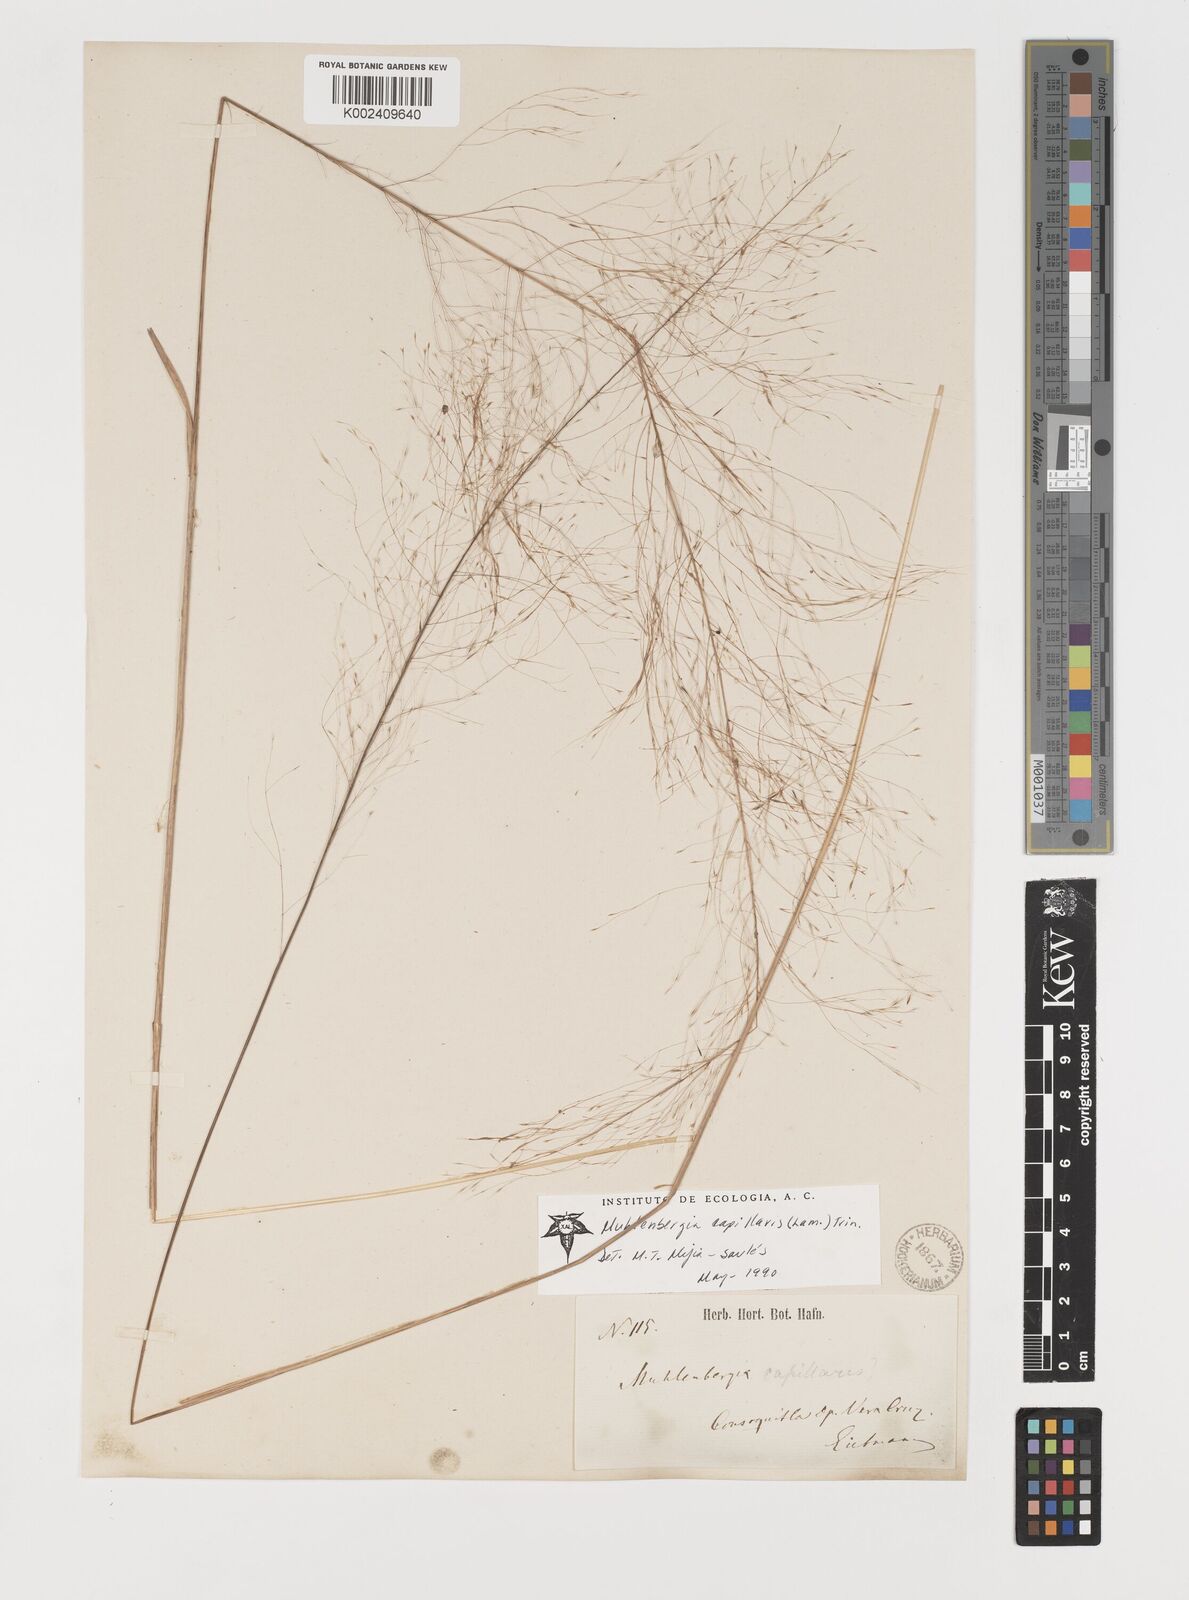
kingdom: Plantae
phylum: Tracheophyta
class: Liliopsida
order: Poales
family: Poaceae
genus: Muhlenbergia
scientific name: Muhlenbergia stricta
